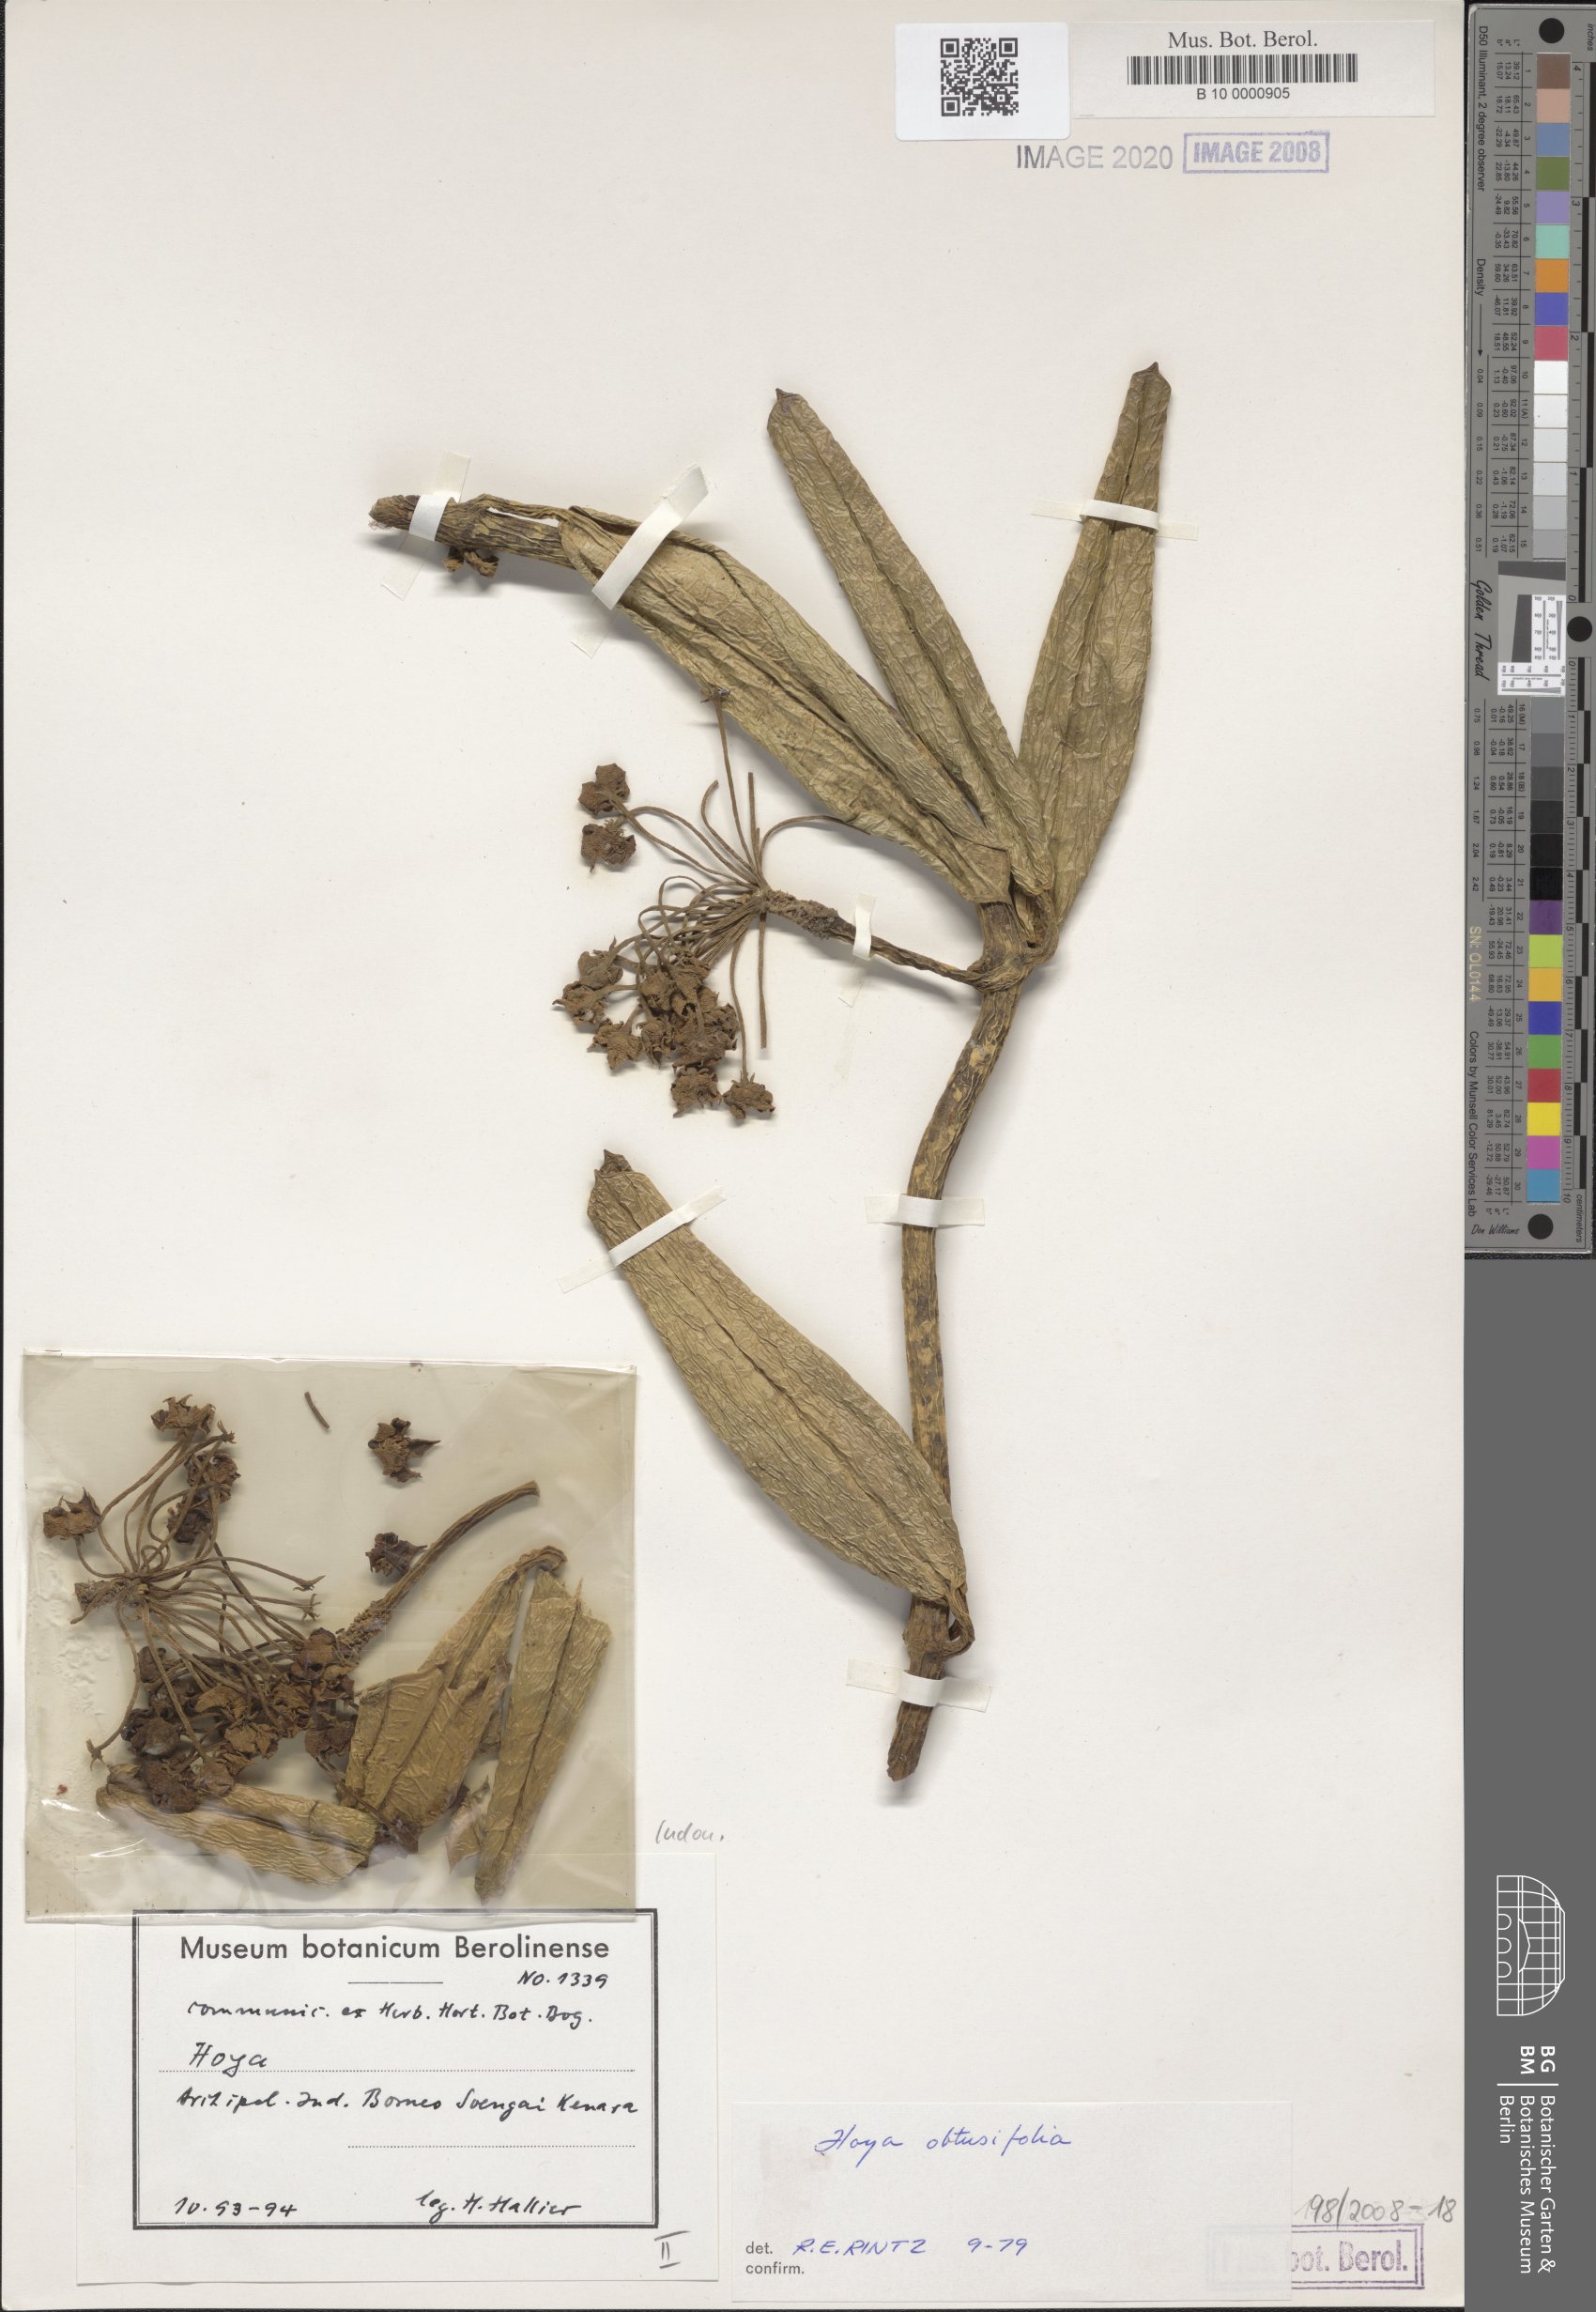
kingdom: Plantae
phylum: Tracheophyta
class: Magnoliopsida
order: Gentianales
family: Apocynaceae
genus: Hoya
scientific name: Hoya obtusifolia
